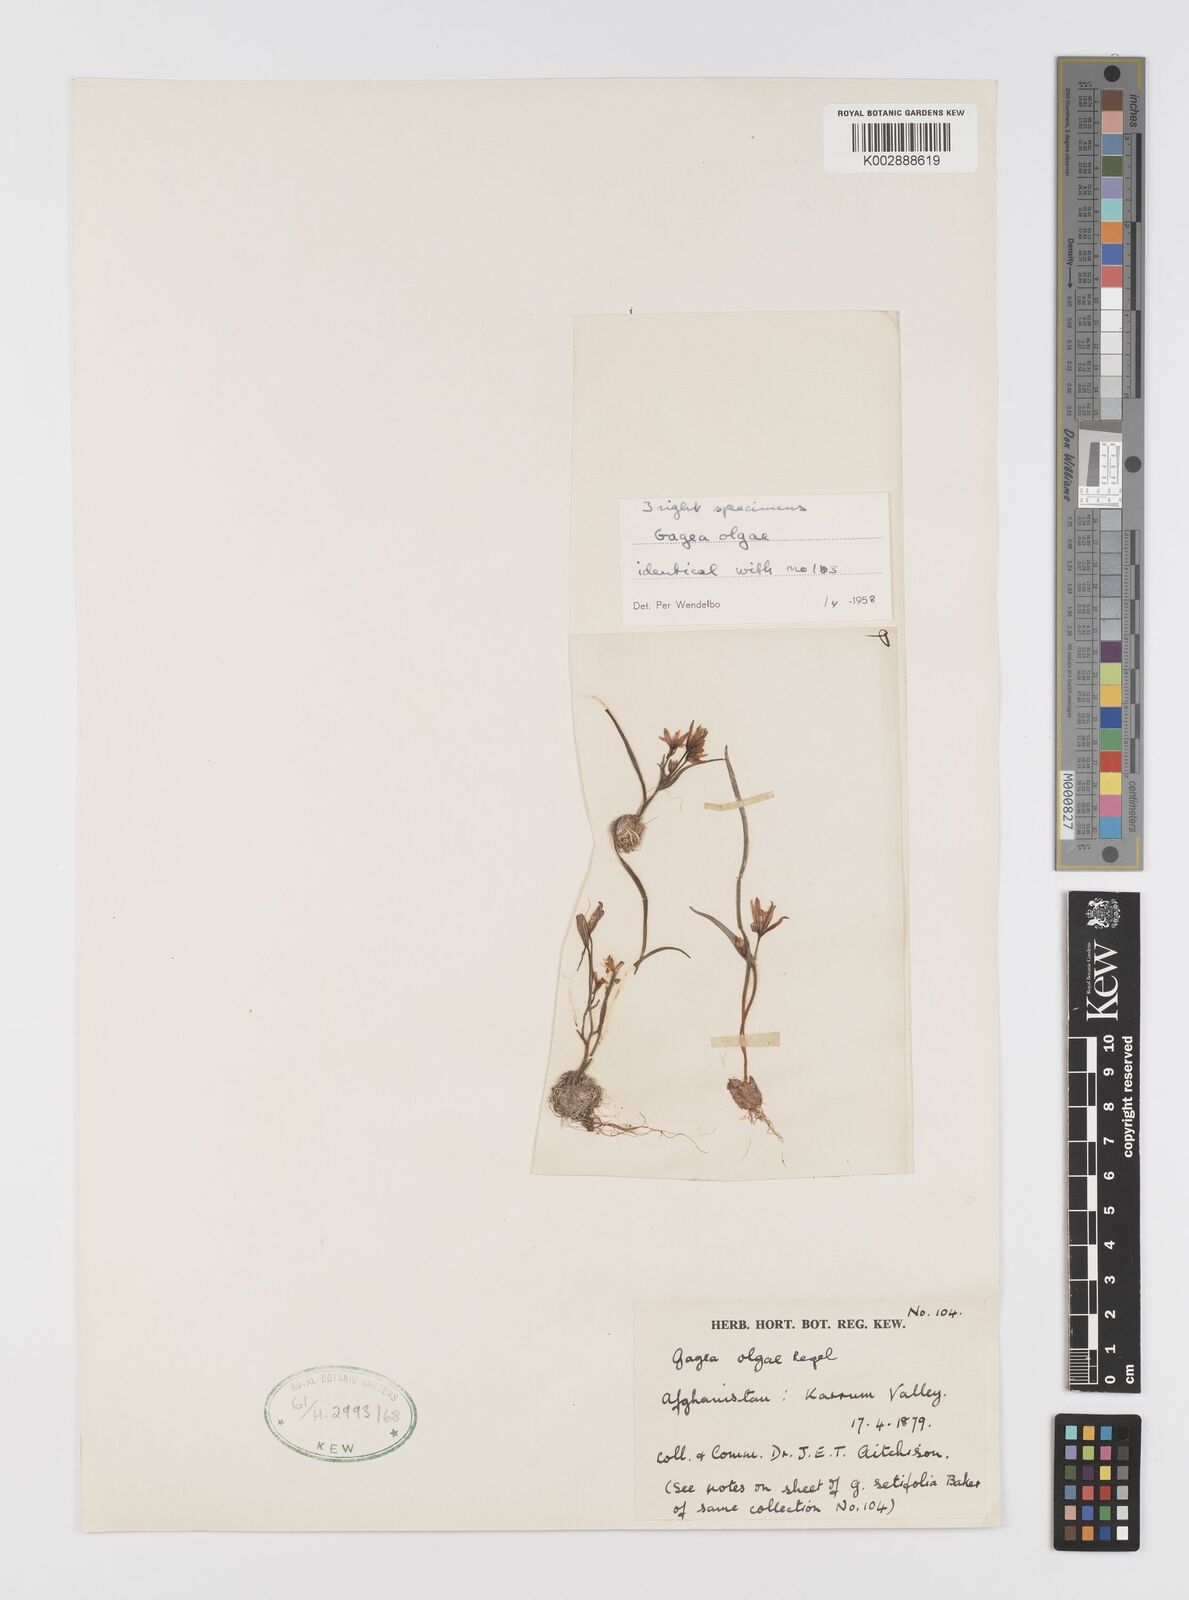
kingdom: Plantae
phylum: Tracheophyta
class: Liliopsida
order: Liliales
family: Liliaceae
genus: Gagea
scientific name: Gagea olgae
